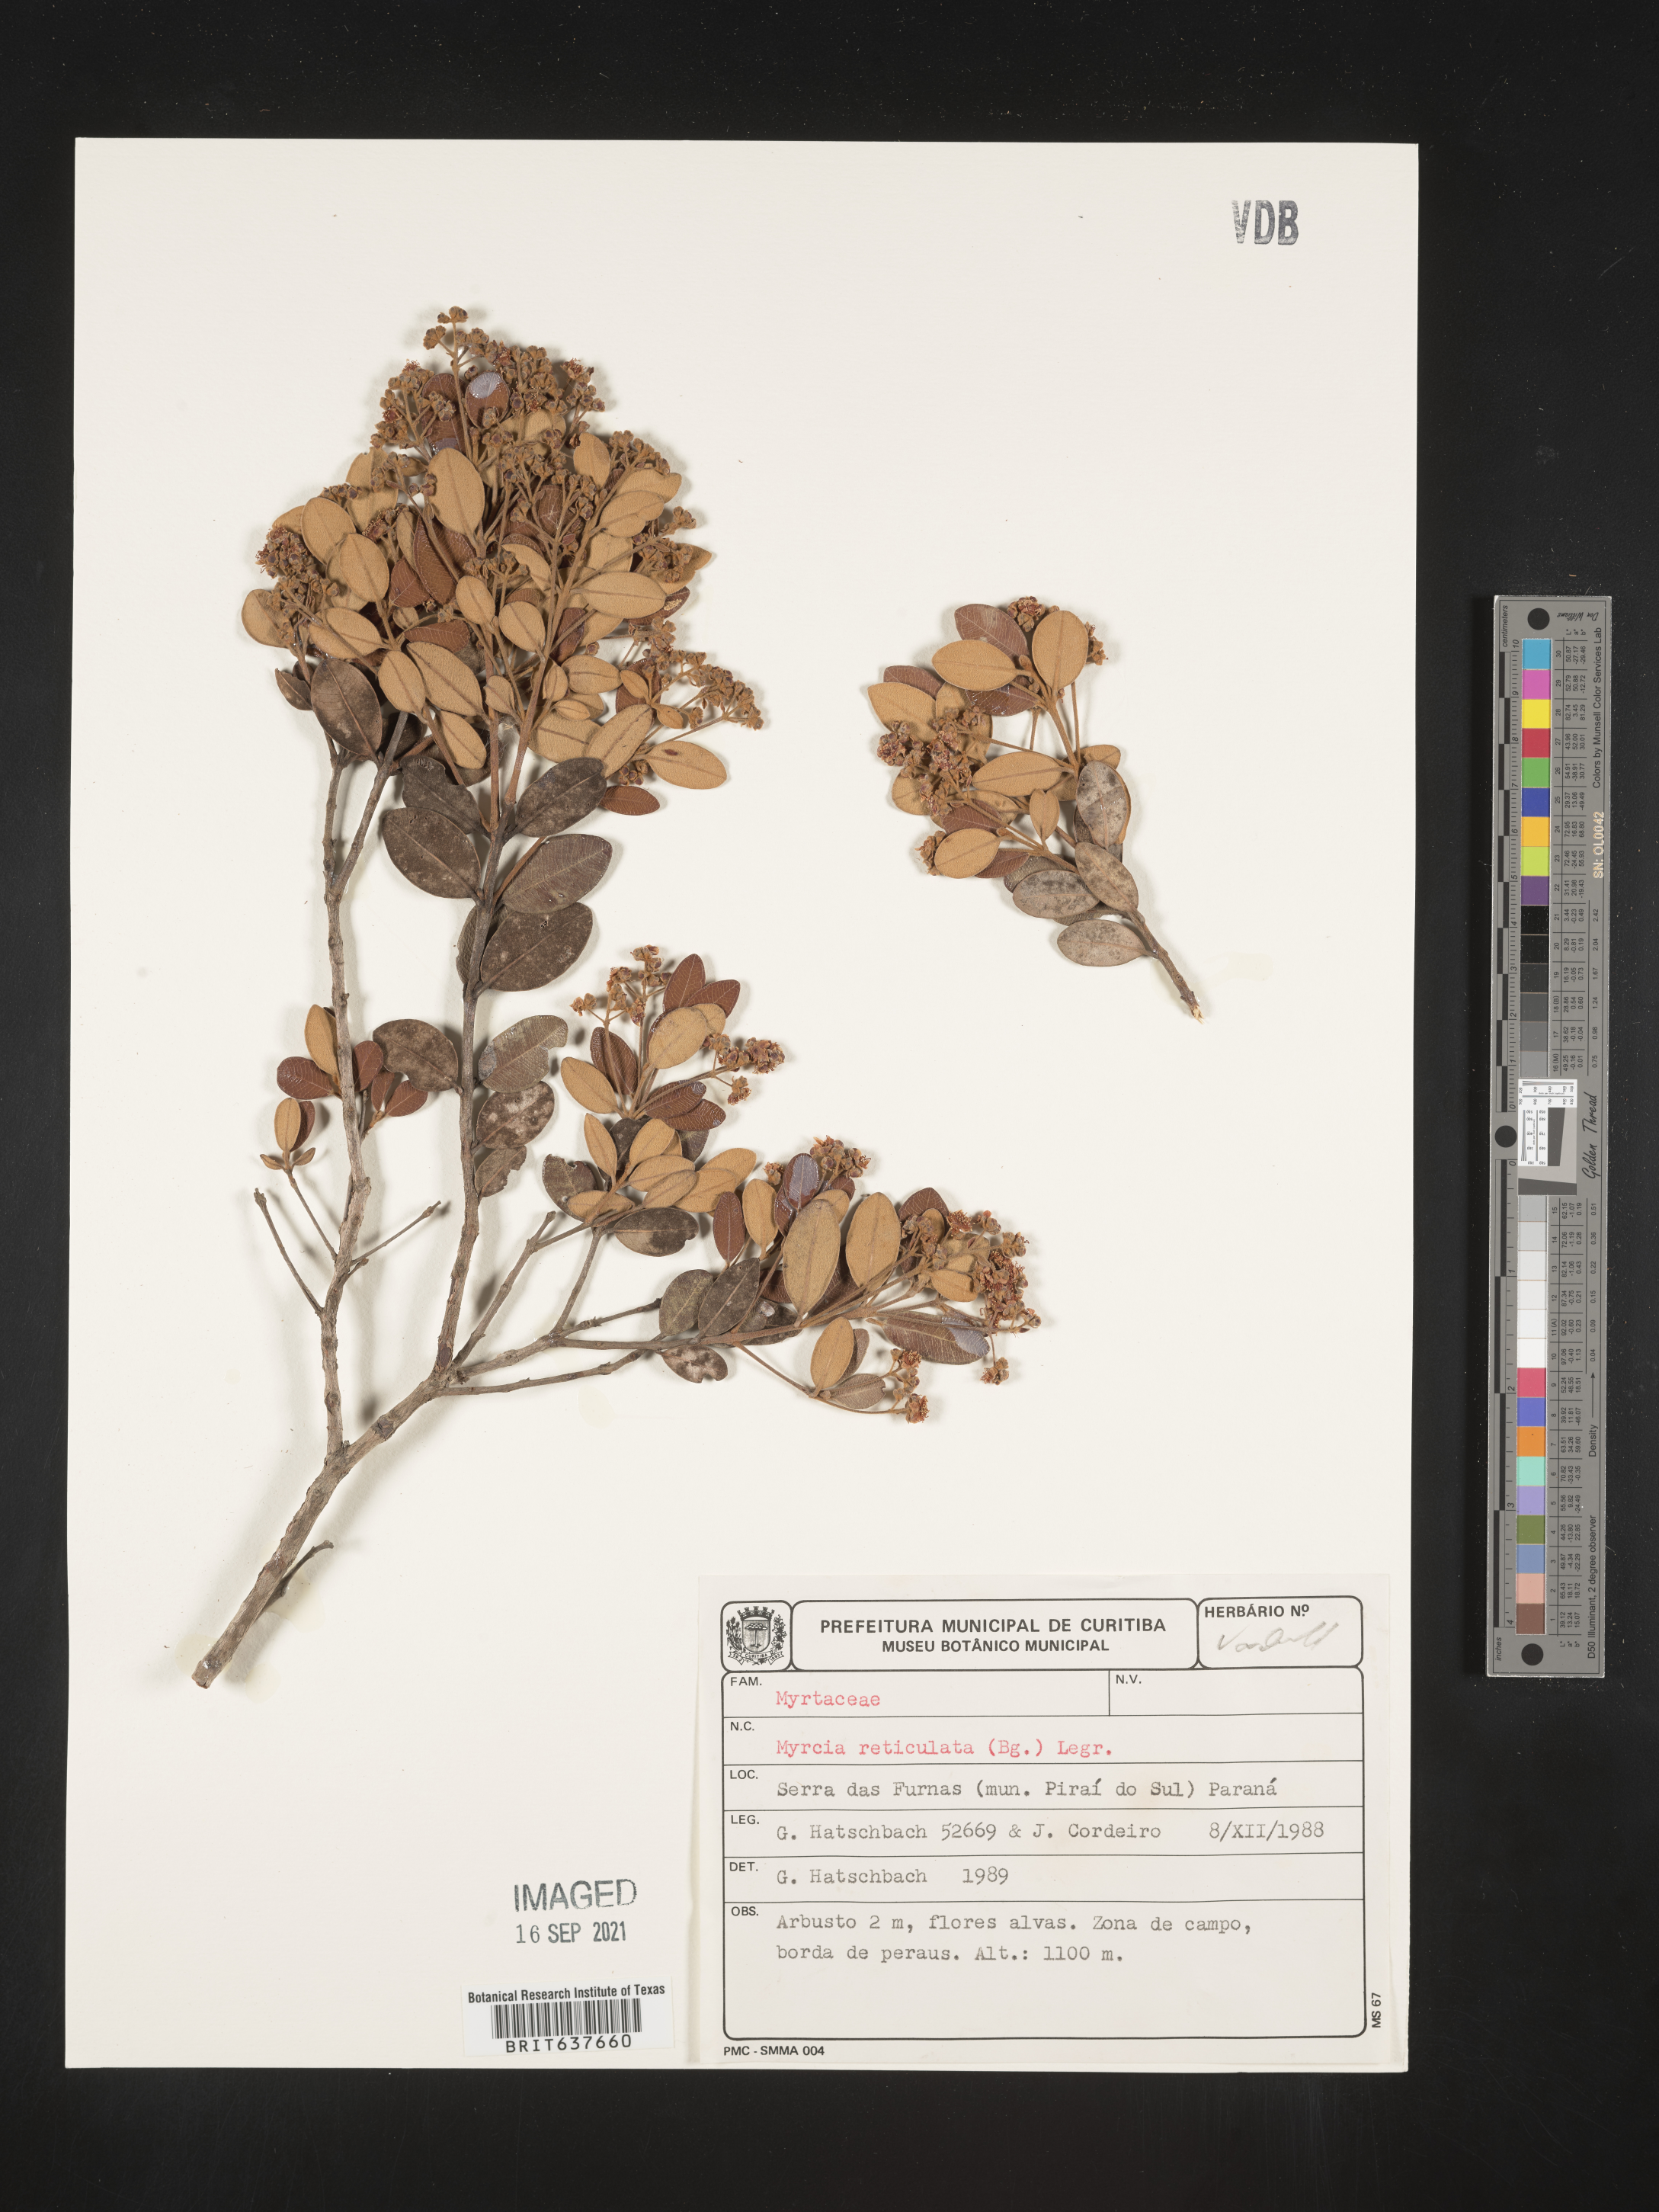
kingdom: Plantae
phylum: Tracheophyta
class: Magnoliopsida
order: Myrtales
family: Myrtaceae
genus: Myrcia
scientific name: Myrcia
